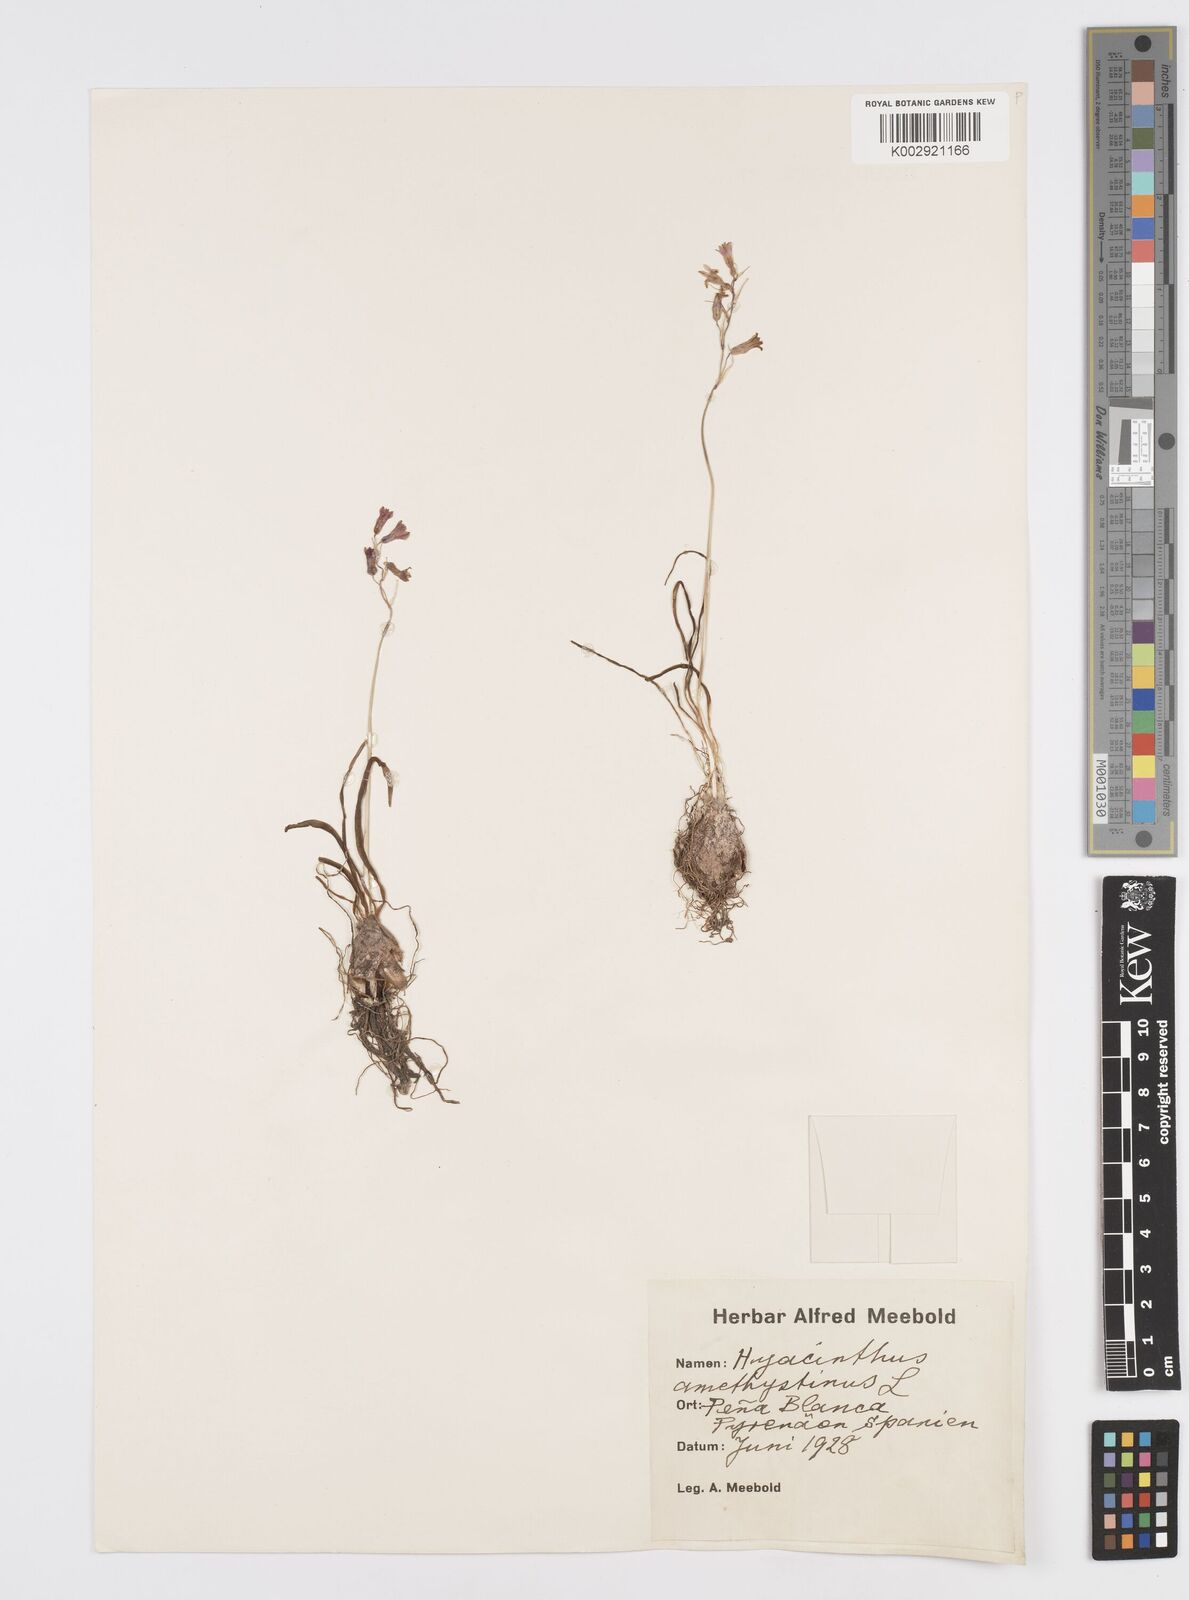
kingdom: Plantae
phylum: Tracheophyta
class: Liliopsida
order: Asparagales
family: Asparagaceae
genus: Brimeura
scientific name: Brimeura
